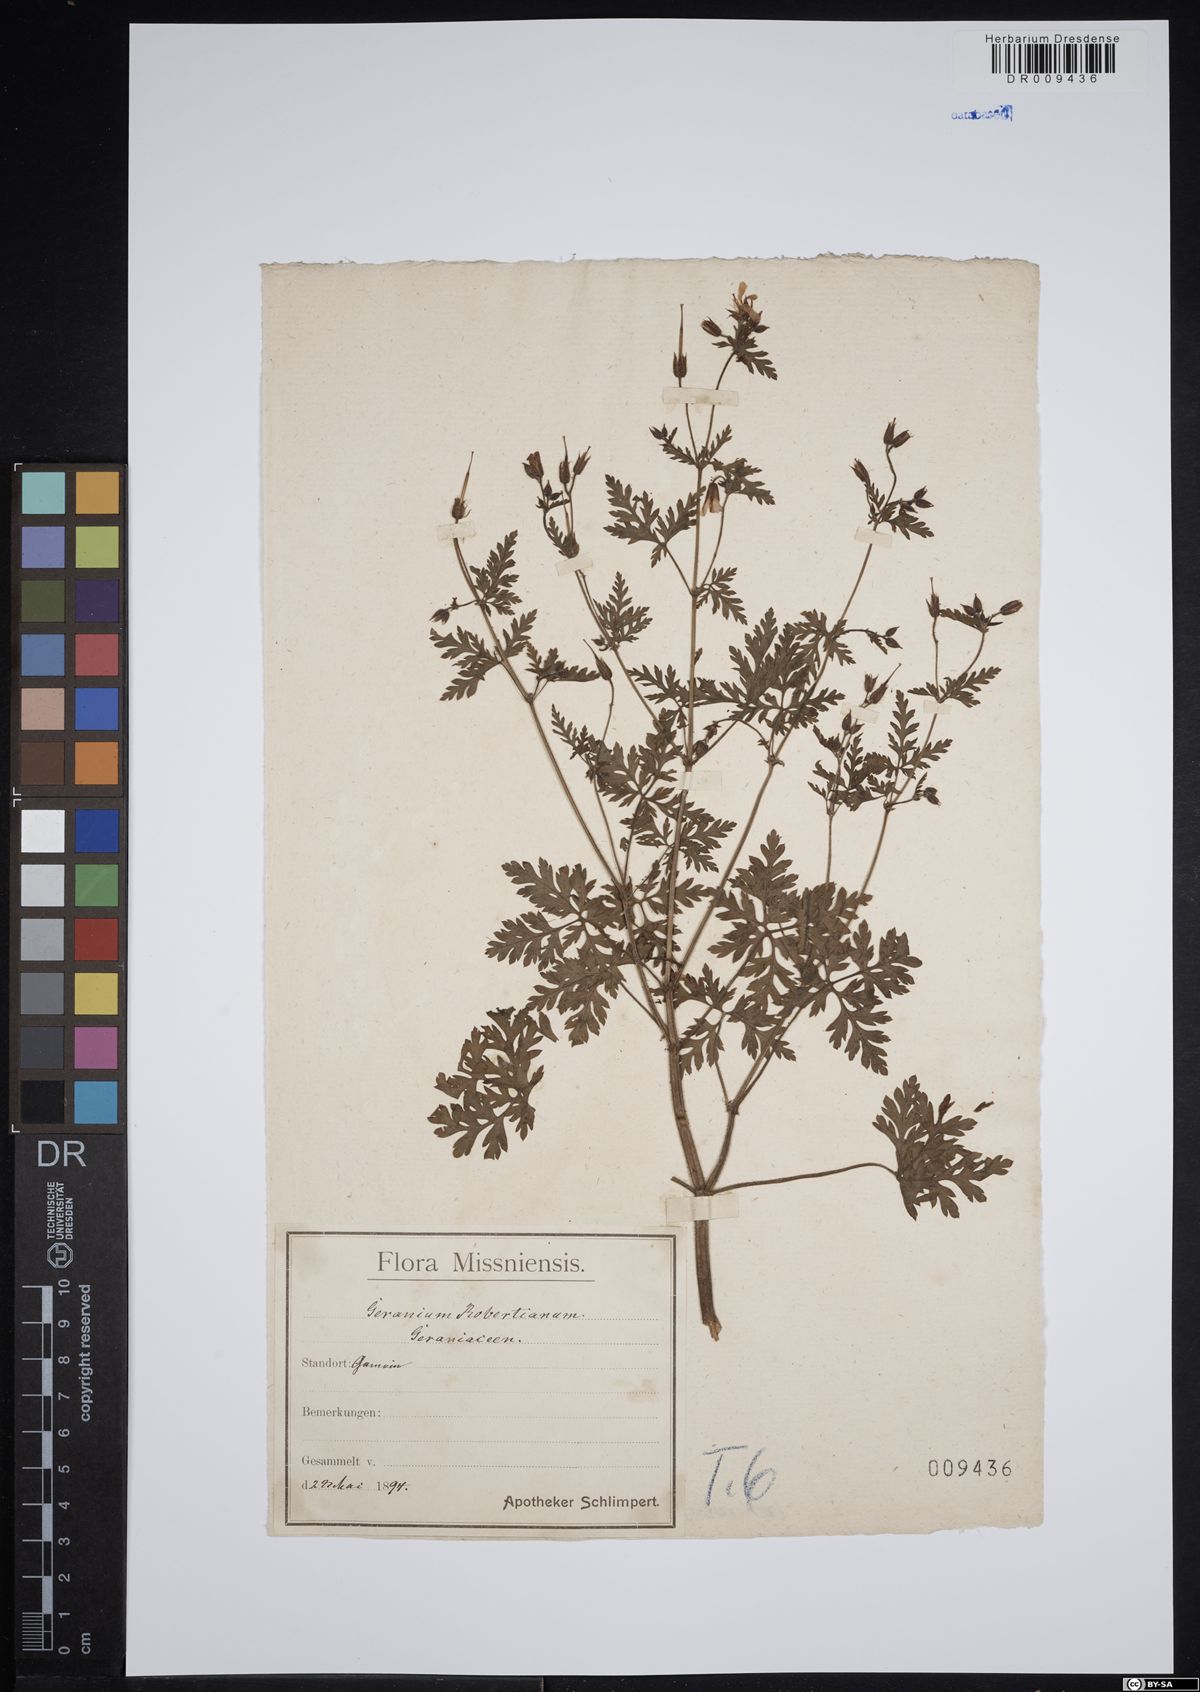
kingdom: Plantae
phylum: Tracheophyta
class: Magnoliopsida
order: Geraniales
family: Geraniaceae
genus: Geranium
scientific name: Geranium robertianum
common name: Herb-robert
